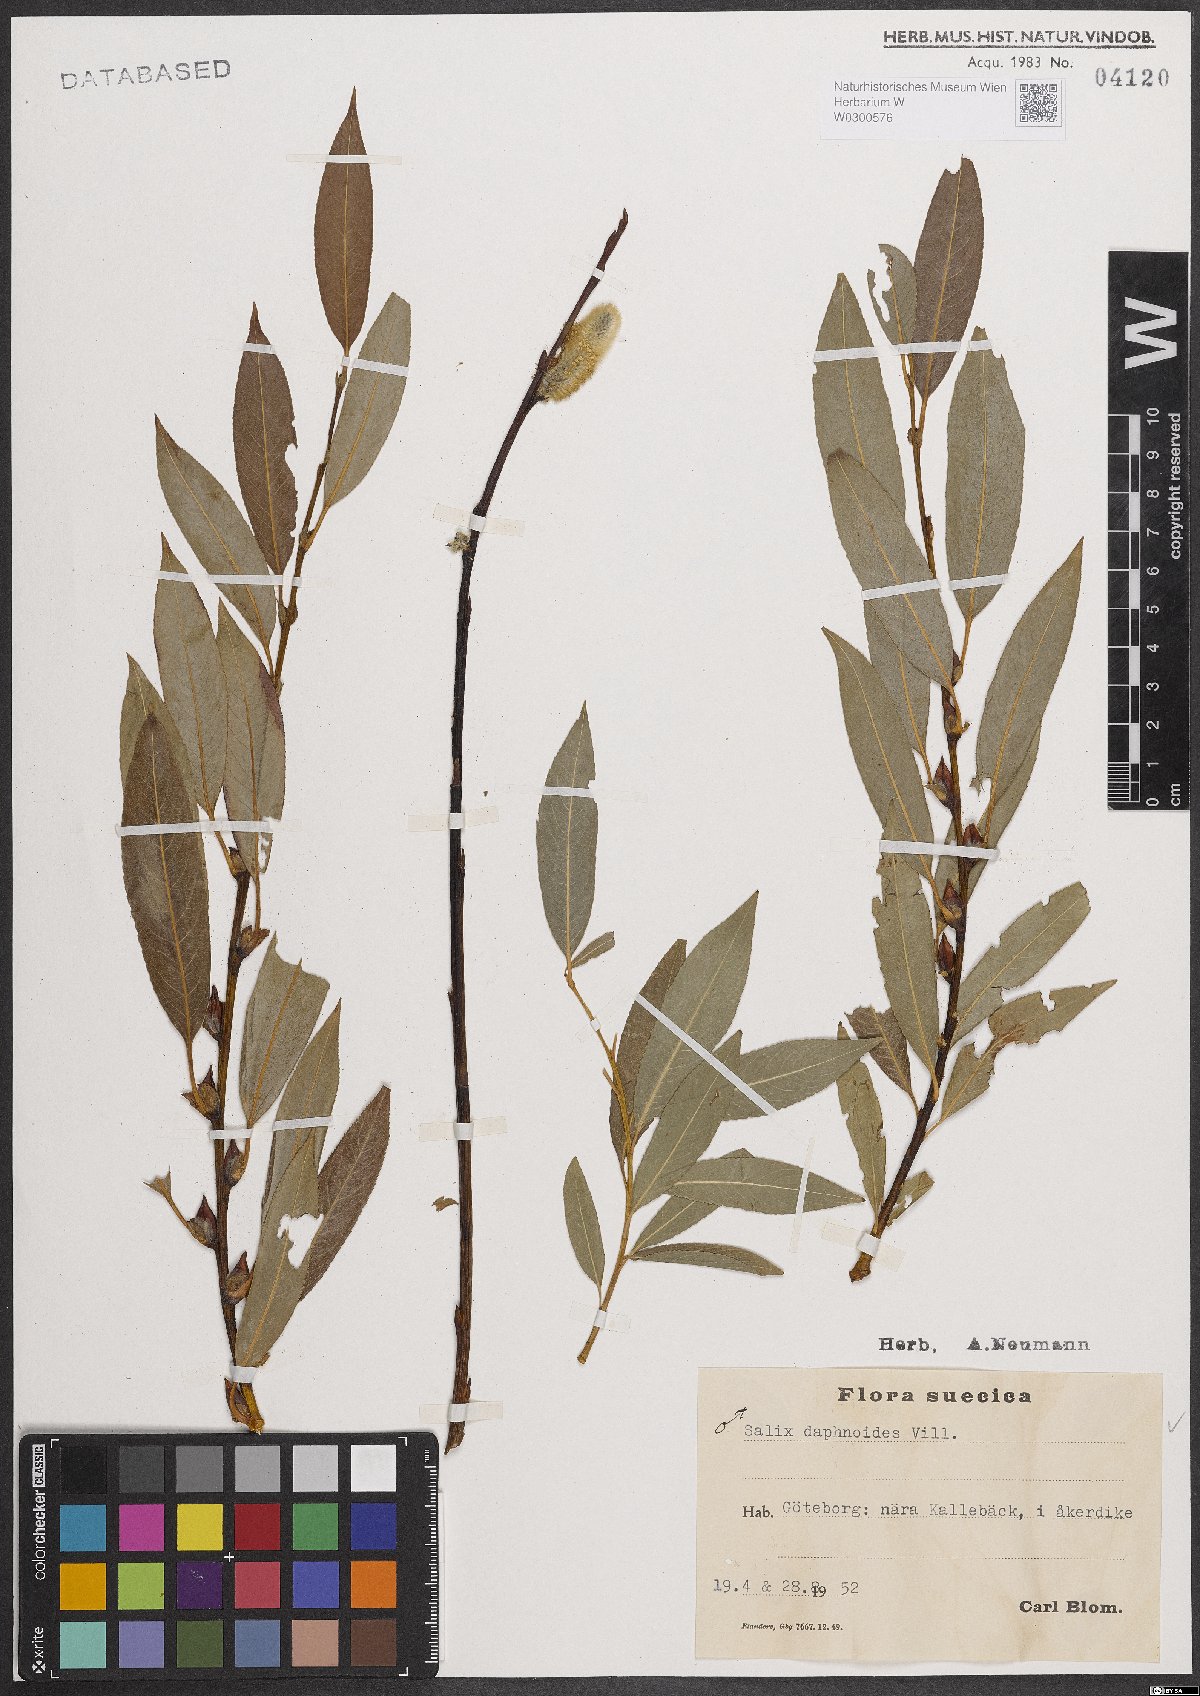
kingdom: Plantae
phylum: Tracheophyta
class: Magnoliopsida
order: Malpighiales
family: Salicaceae
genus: Salix
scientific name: Salix daphnoides
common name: European violet-willow
